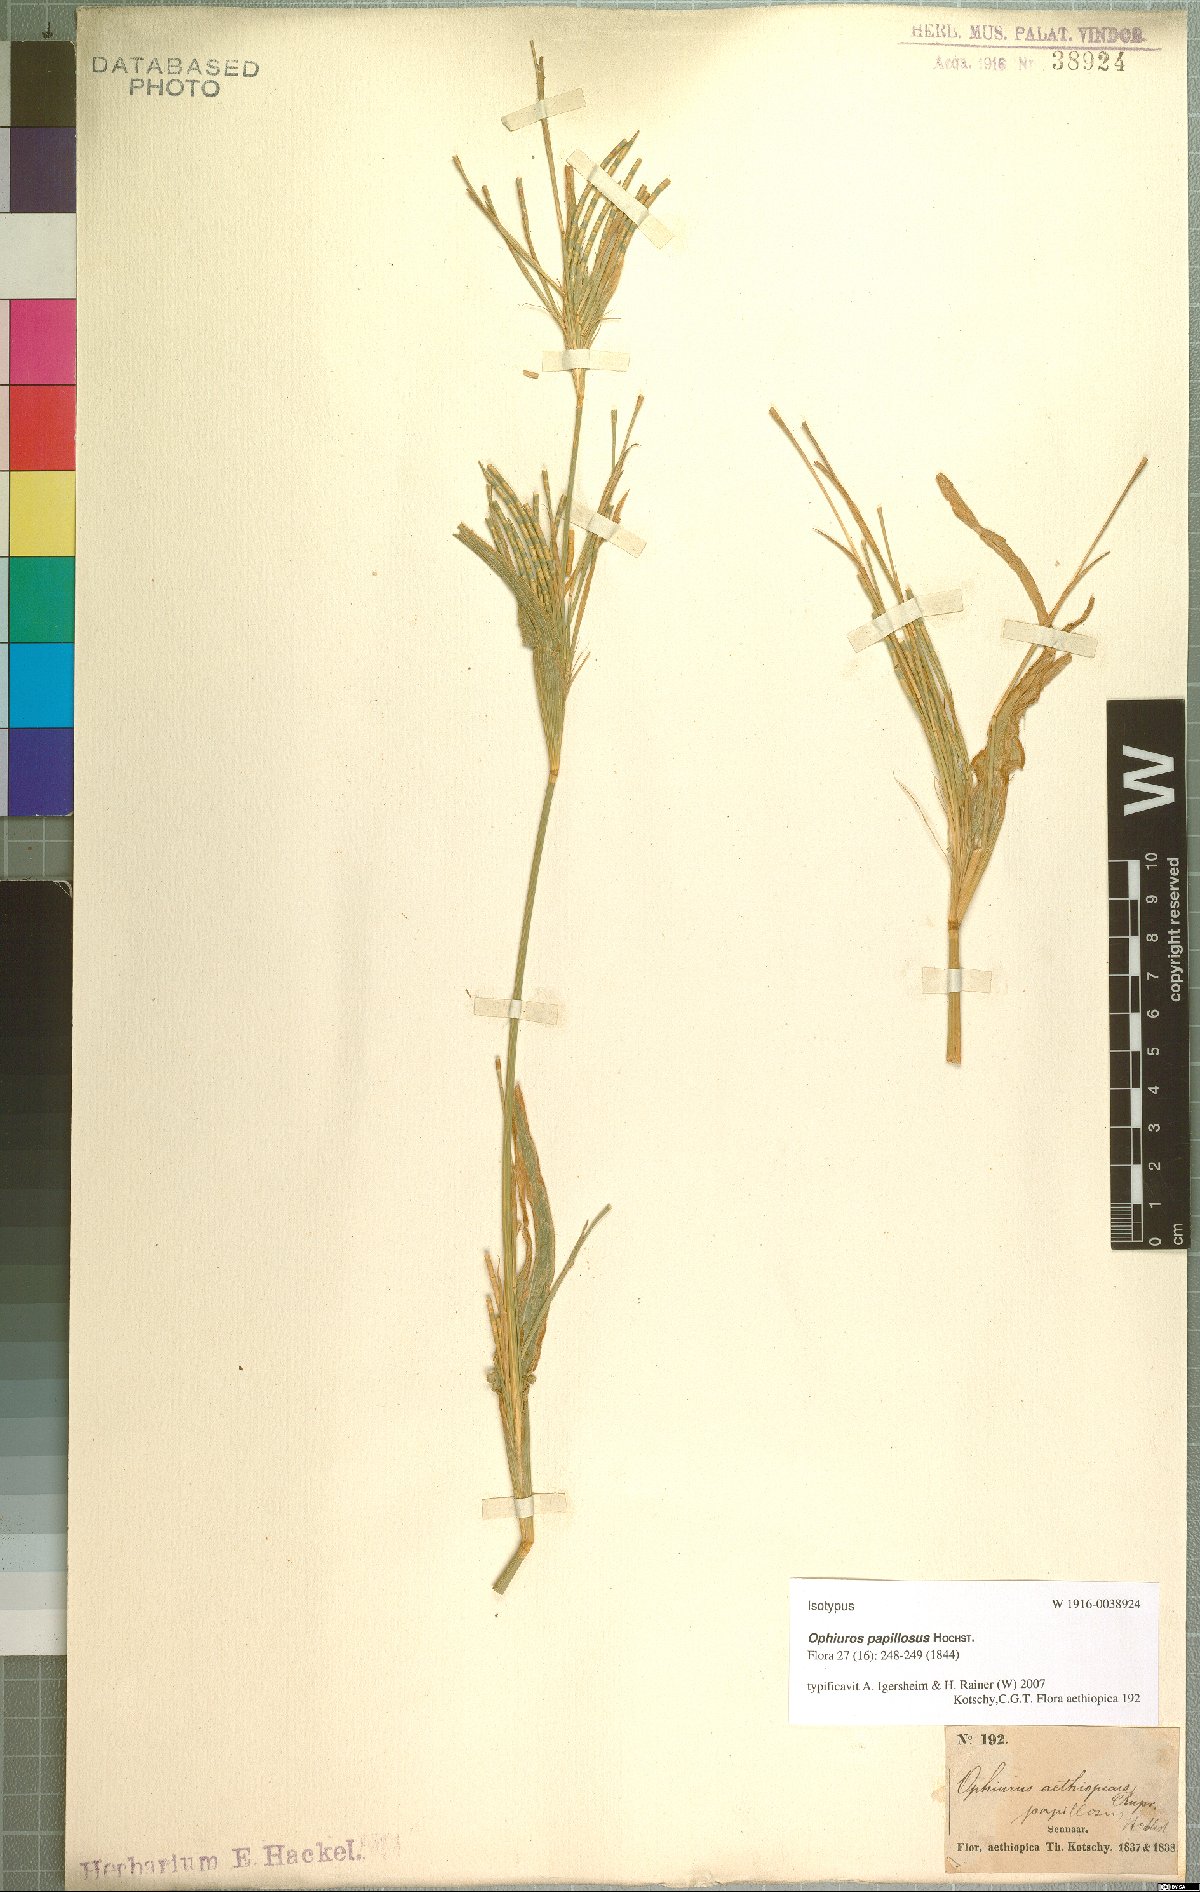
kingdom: Plantae
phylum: Tracheophyta
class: Liliopsida
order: Poales
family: Poaceae
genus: Ophiuros
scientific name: Ophiuros papillosus
